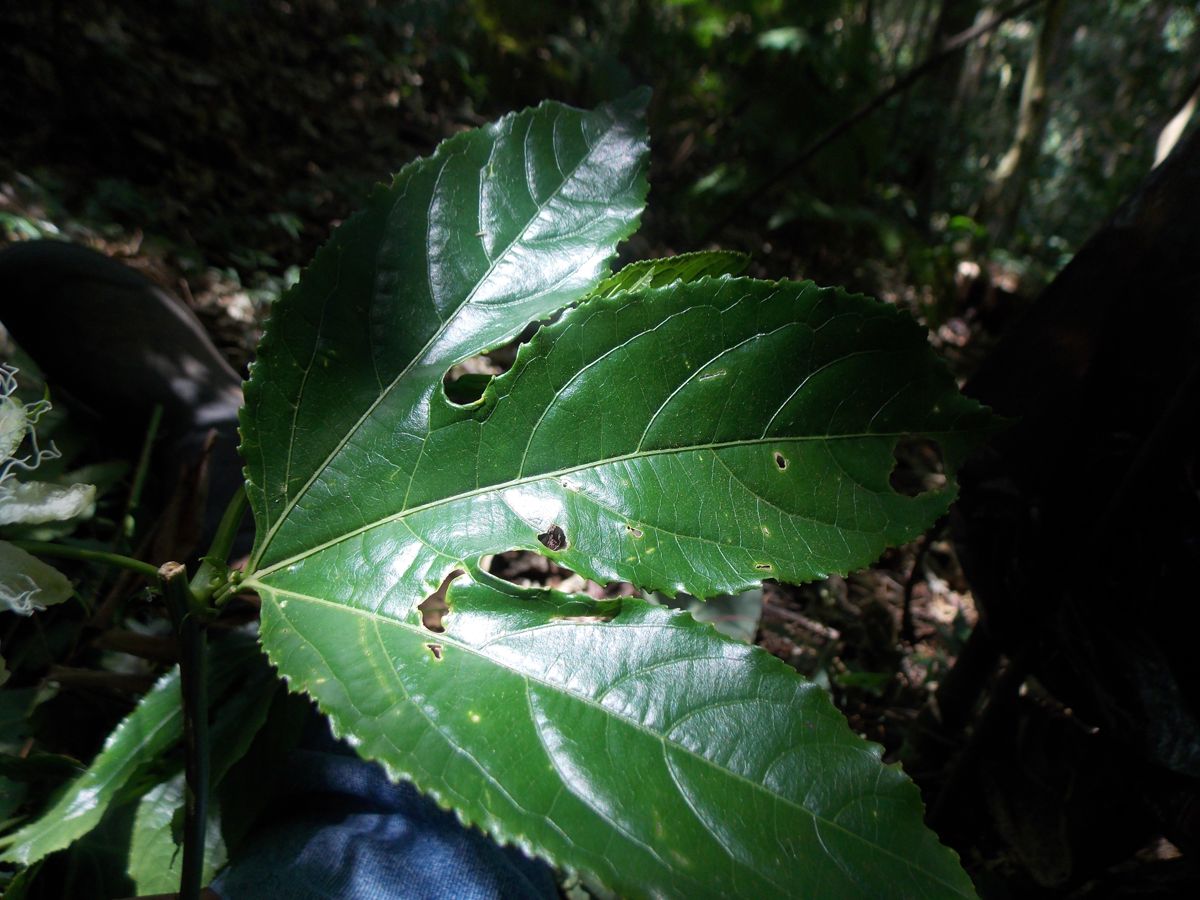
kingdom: Plantae
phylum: Tracheophyta
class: Magnoliopsida
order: Malpighiales
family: Passifloraceae
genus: Passiflora
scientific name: Passiflora edulis
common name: Purple granadilla
